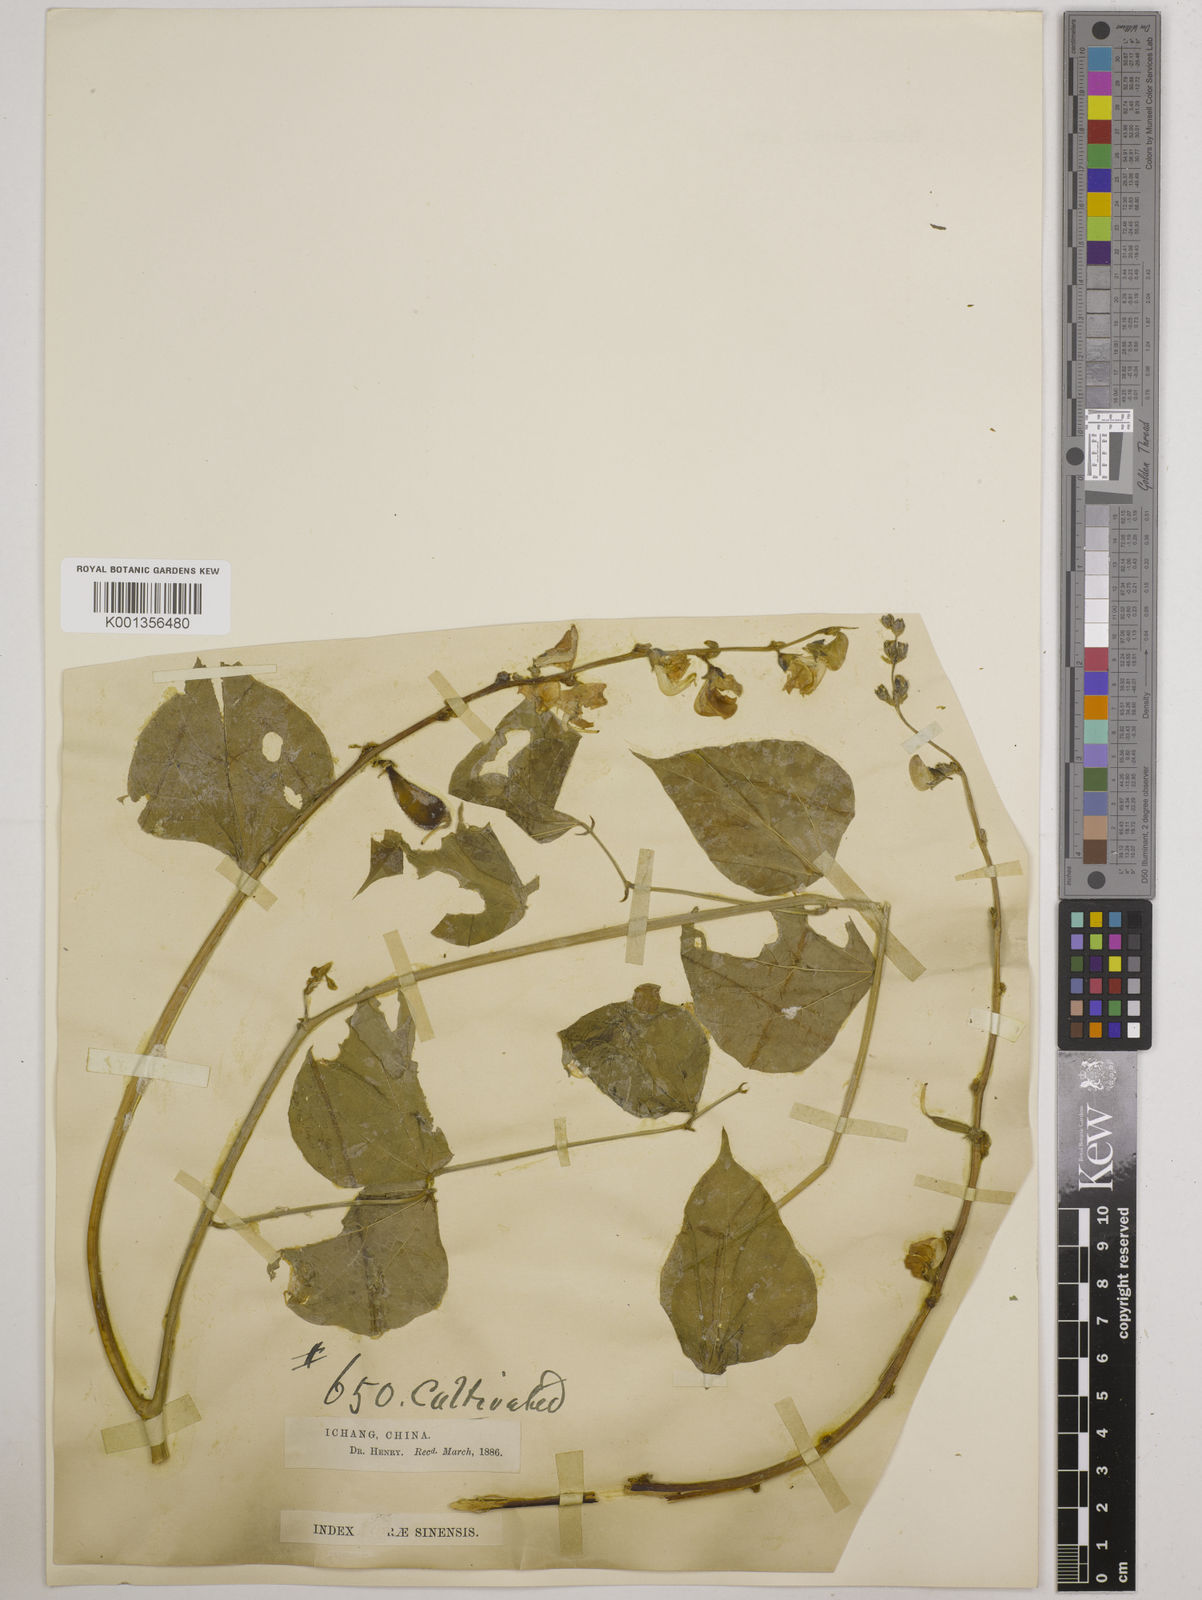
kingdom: Plantae
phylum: Tracheophyta
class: Magnoliopsida
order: Fabales
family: Fabaceae
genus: Lablab
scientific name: Lablab purpureus
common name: Lablab-bean
